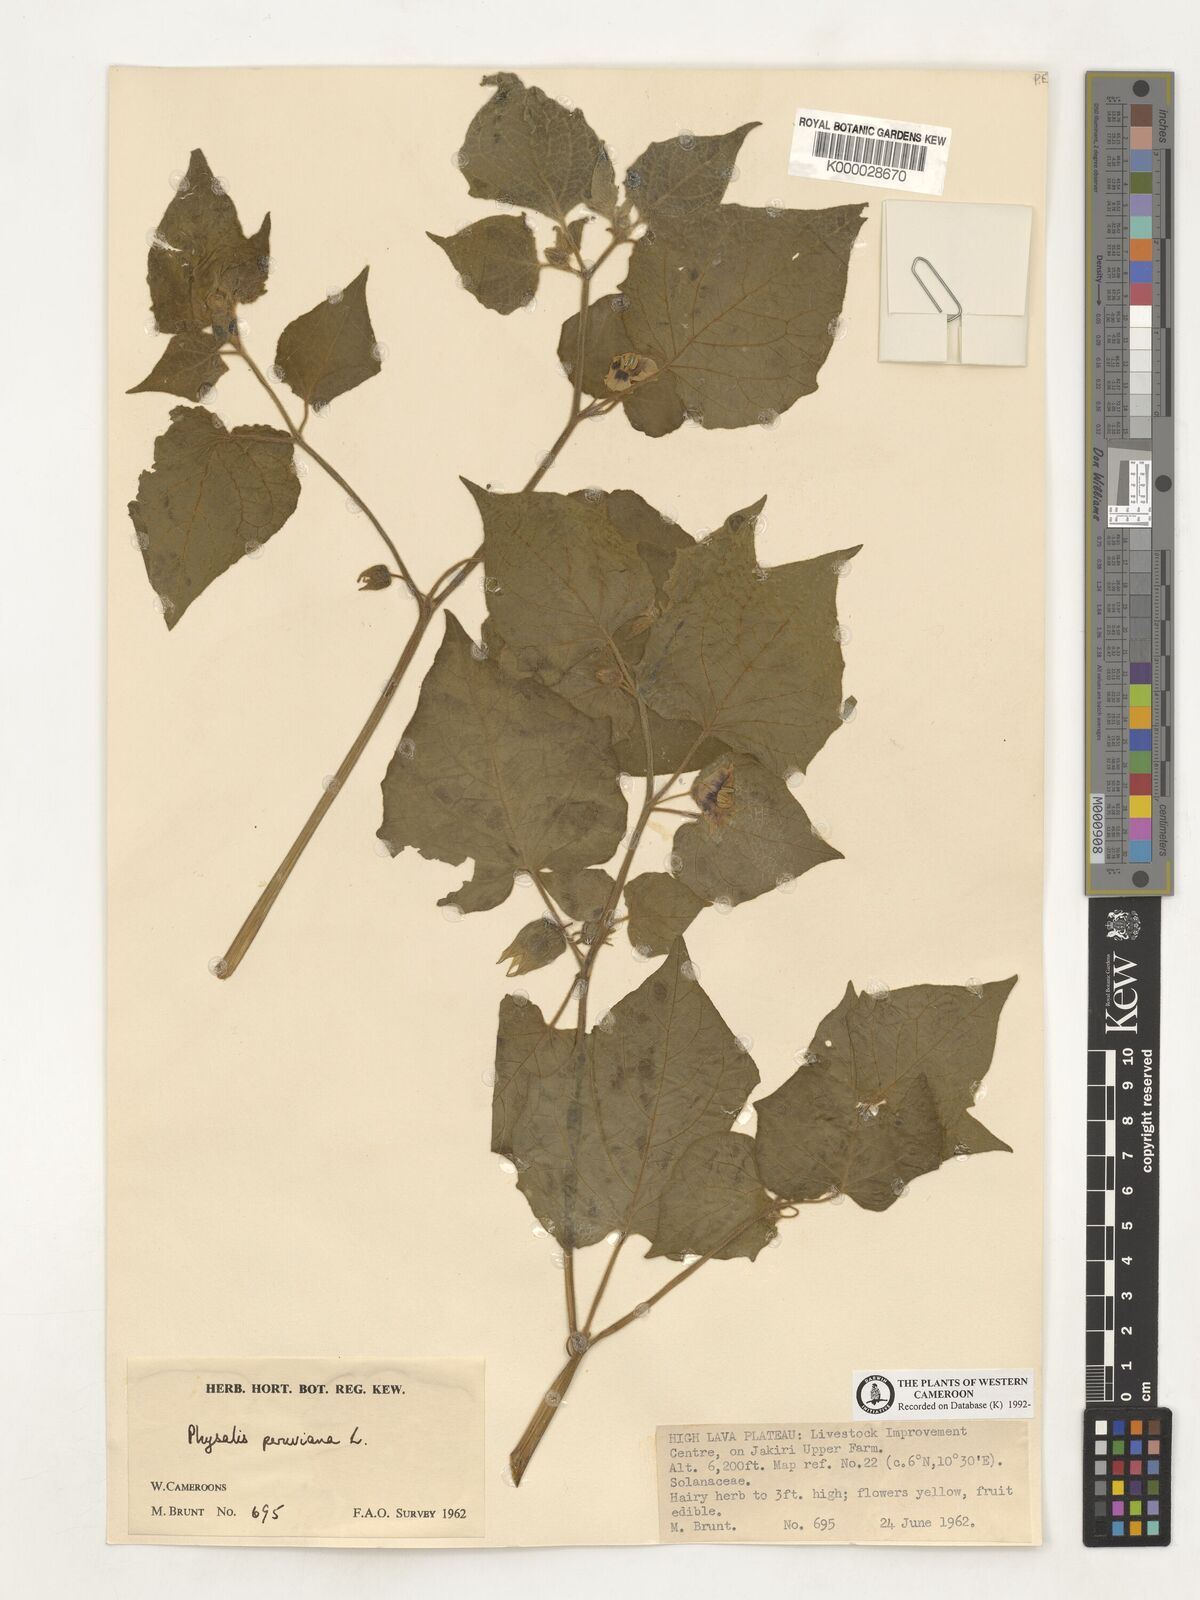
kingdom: Plantae
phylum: Tracheophyta
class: Magnoliopsida
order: Solanales
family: Solanaceae
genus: Physalis
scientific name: Physalis peruviana
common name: Cape-gooseberry
